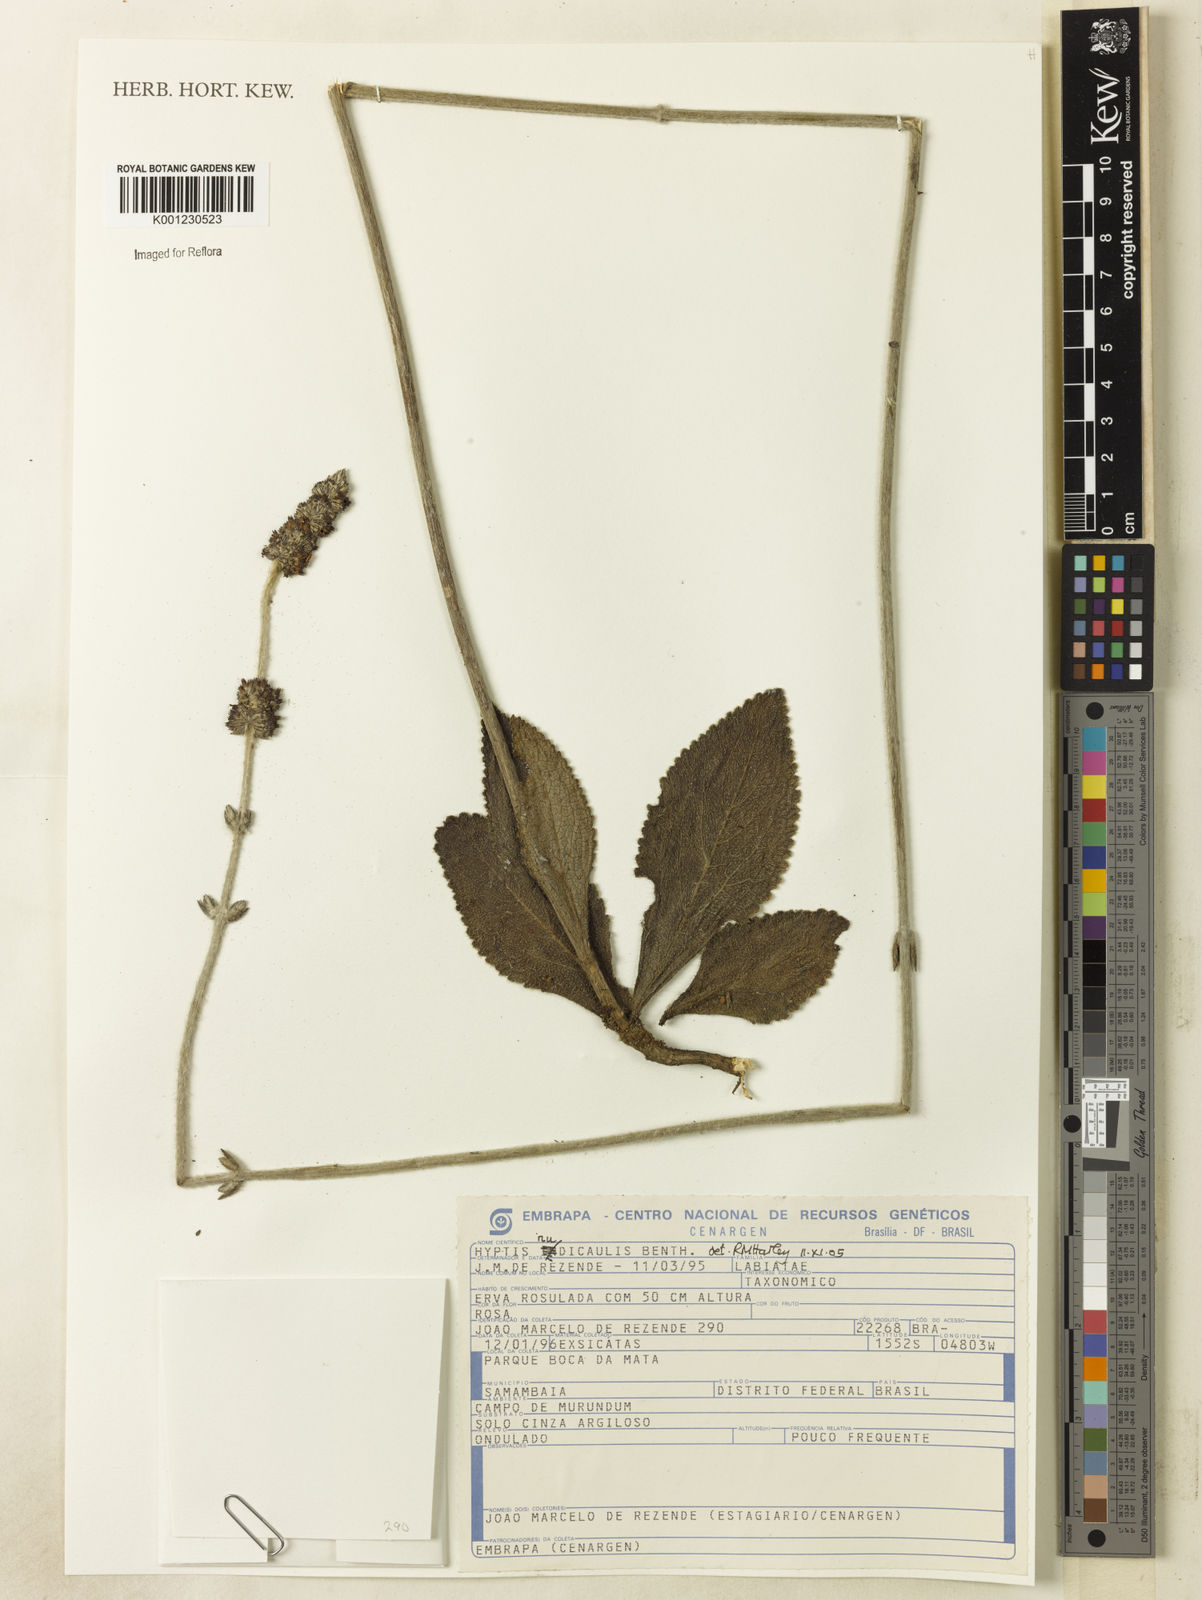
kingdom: Plantae
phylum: Tracheophyta
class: Magnoliopsida
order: Lamiales
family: Lamiaceae
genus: Hyptis
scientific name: Hyptis nudicaulis
